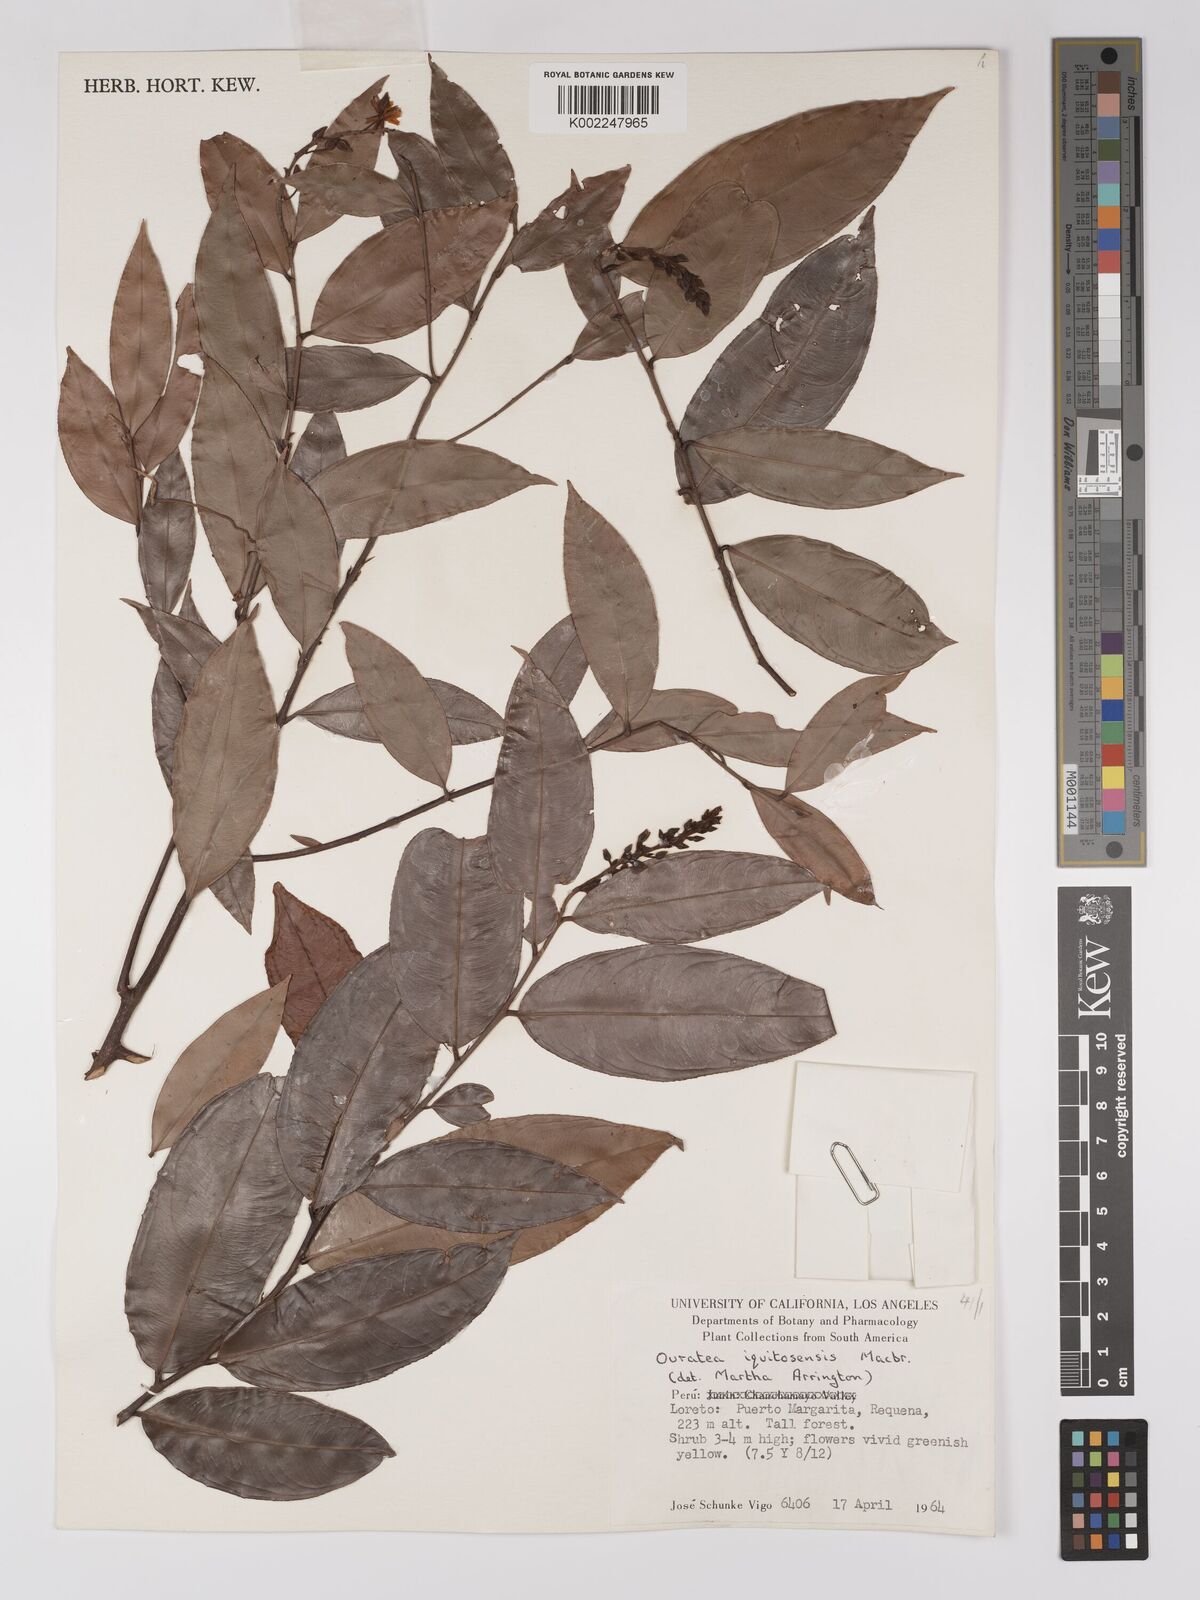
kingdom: Plantae
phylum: Tracheophyta
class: Magnoliopsida
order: Malpighiales
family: Ochnaceae
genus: Ouratea
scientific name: Ouratea iquitosensis
